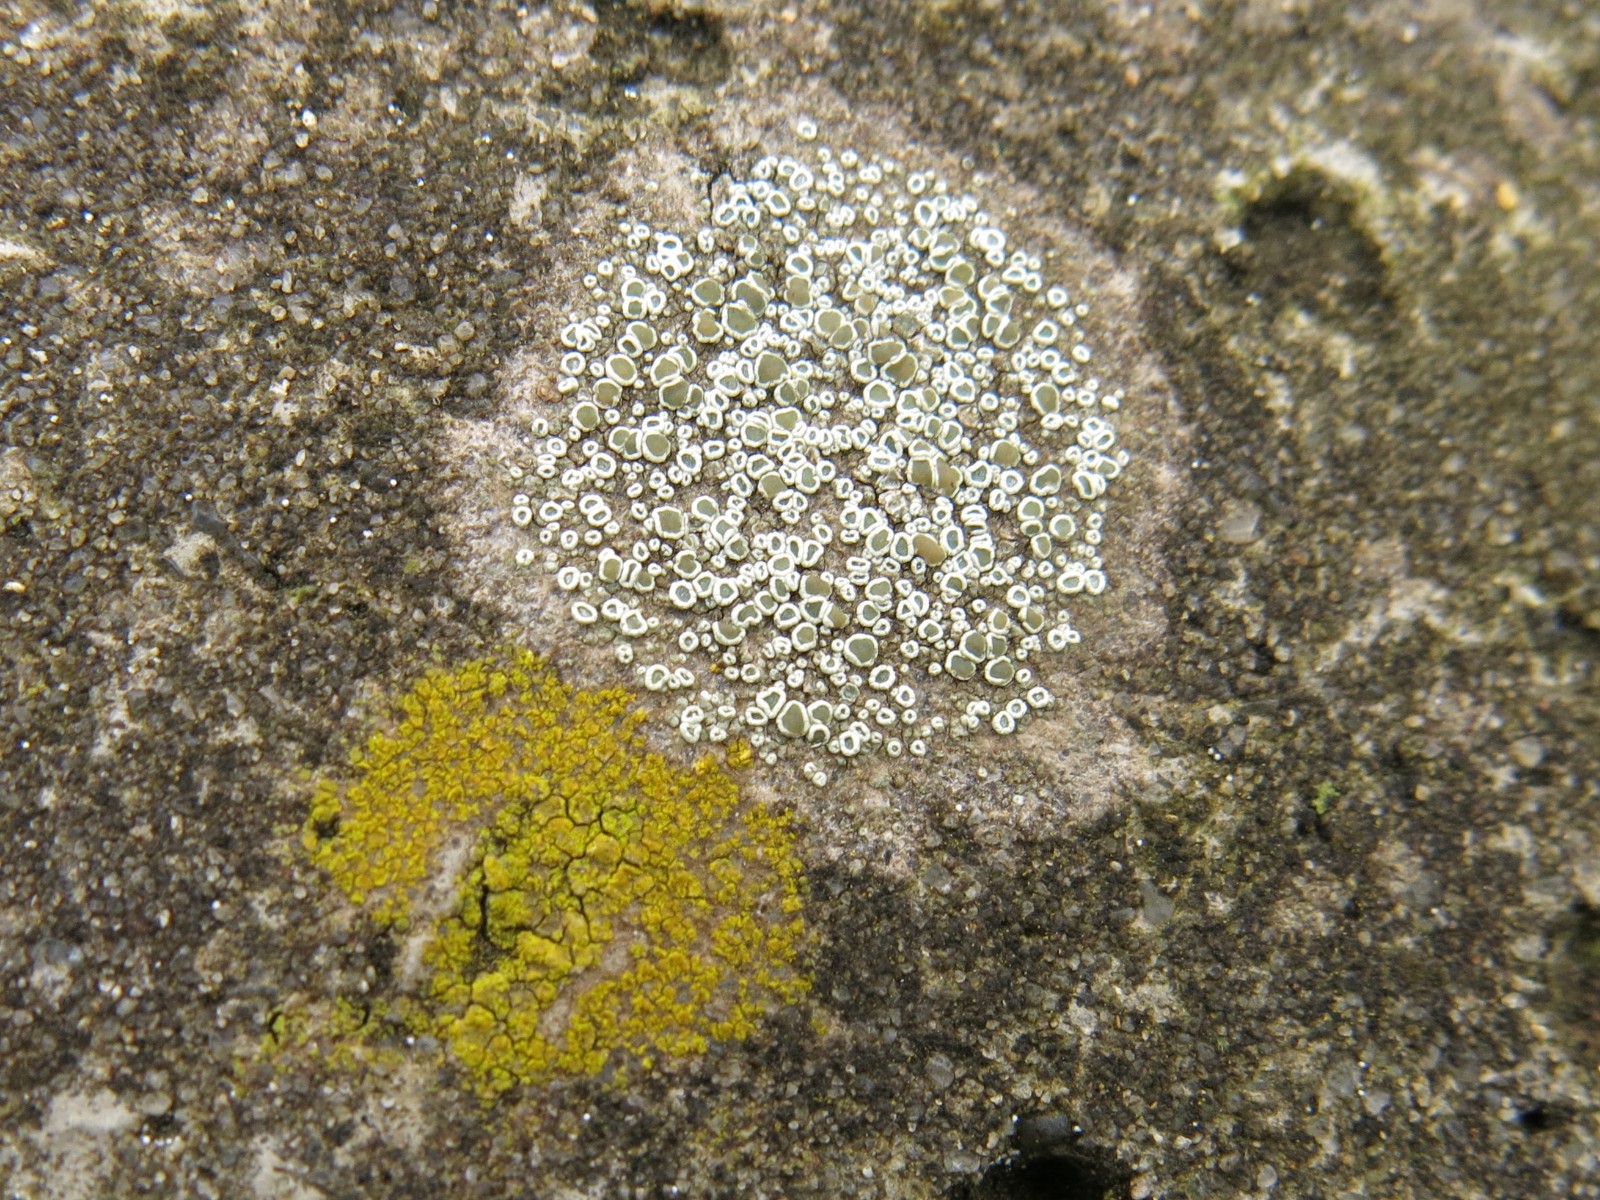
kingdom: Fungi
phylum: Ascomycota
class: Lecanoromycetes
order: Lecanorales
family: Lecanoraceae
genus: Polyozosia
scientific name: Polyozosia dispersa
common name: spredt kantskivelav
